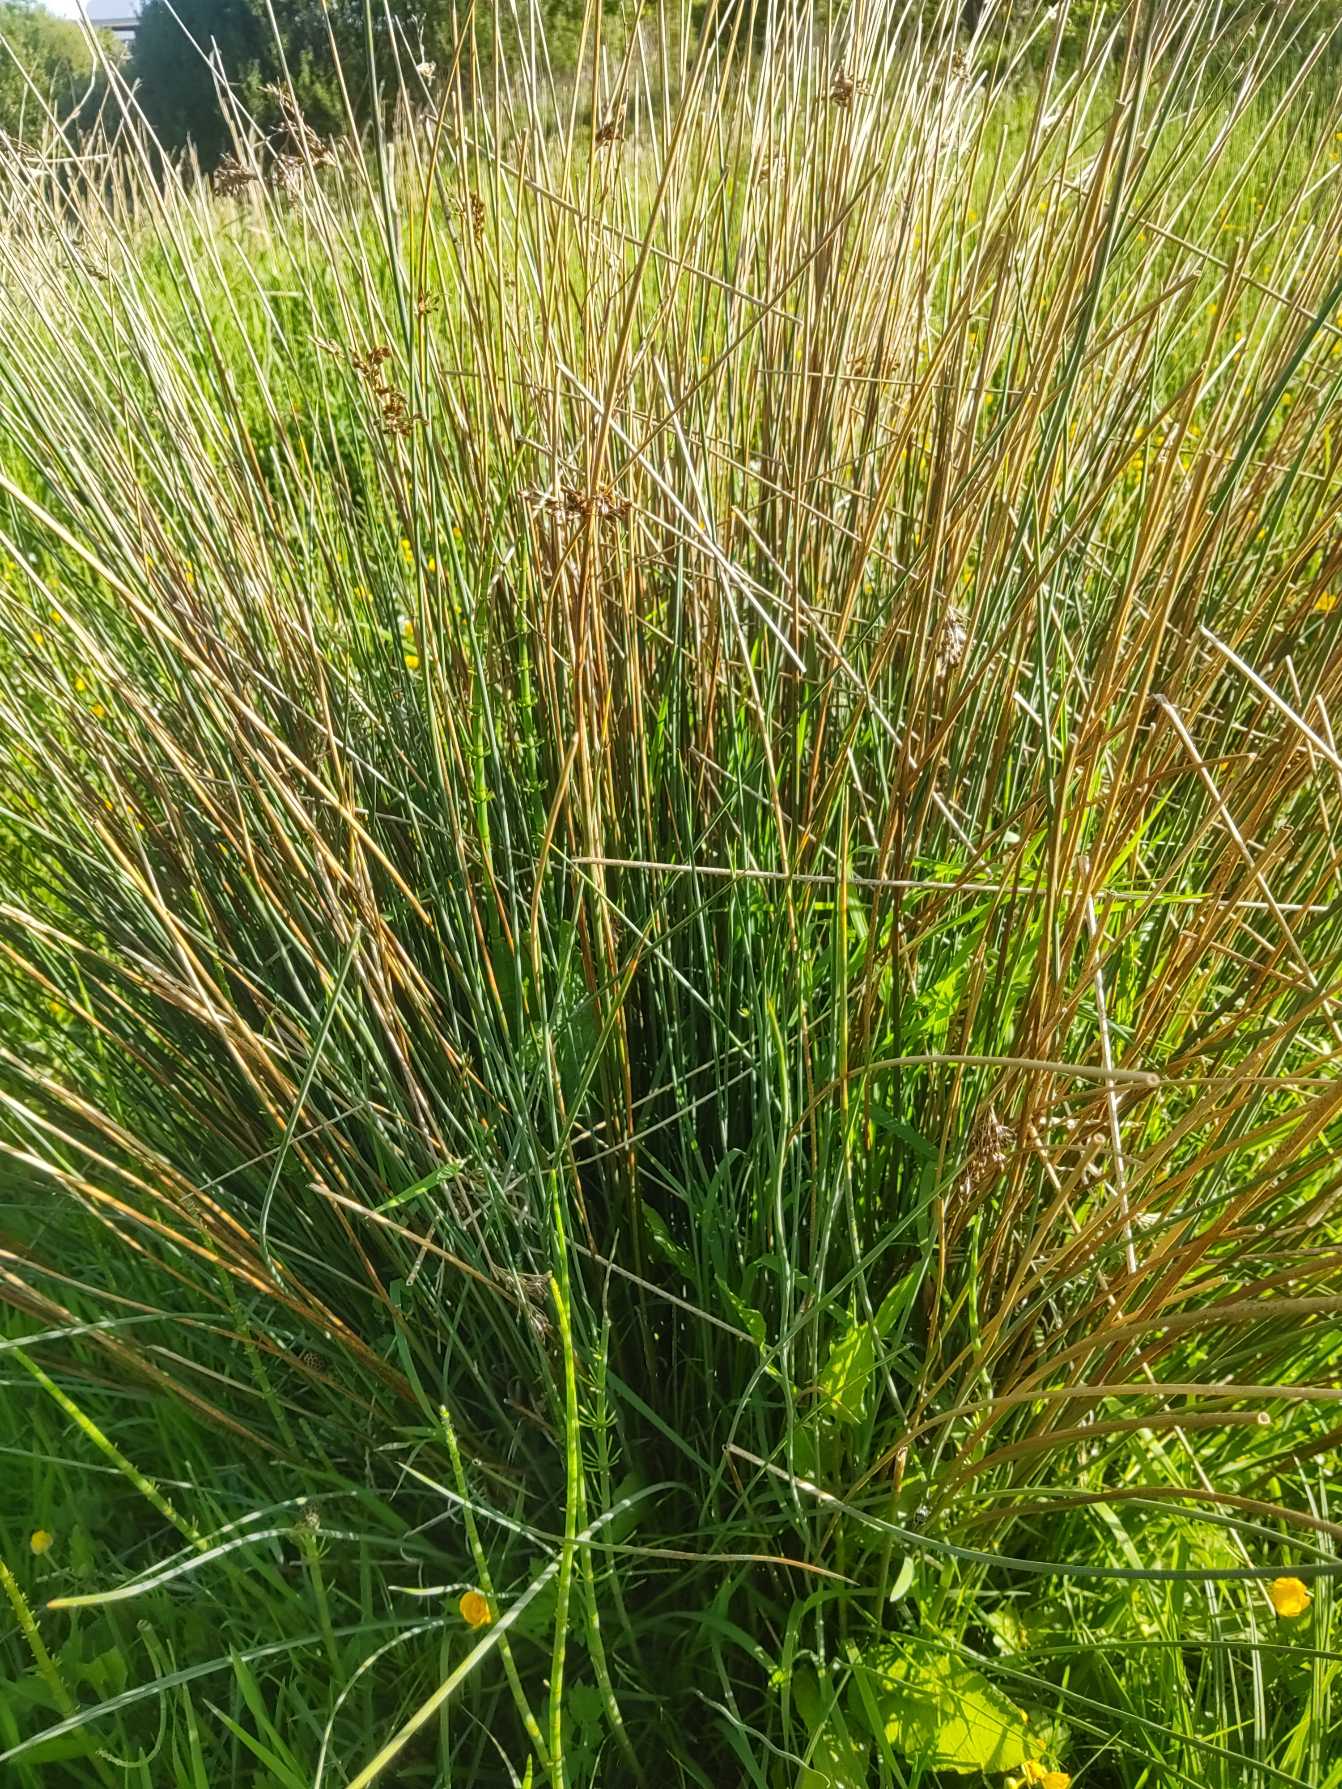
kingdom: Plantae
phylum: Tracheophyta
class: Liliopsida
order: Poales
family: Juncaceae
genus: Juncus
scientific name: Juncus inflexus
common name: Blågrå siv
